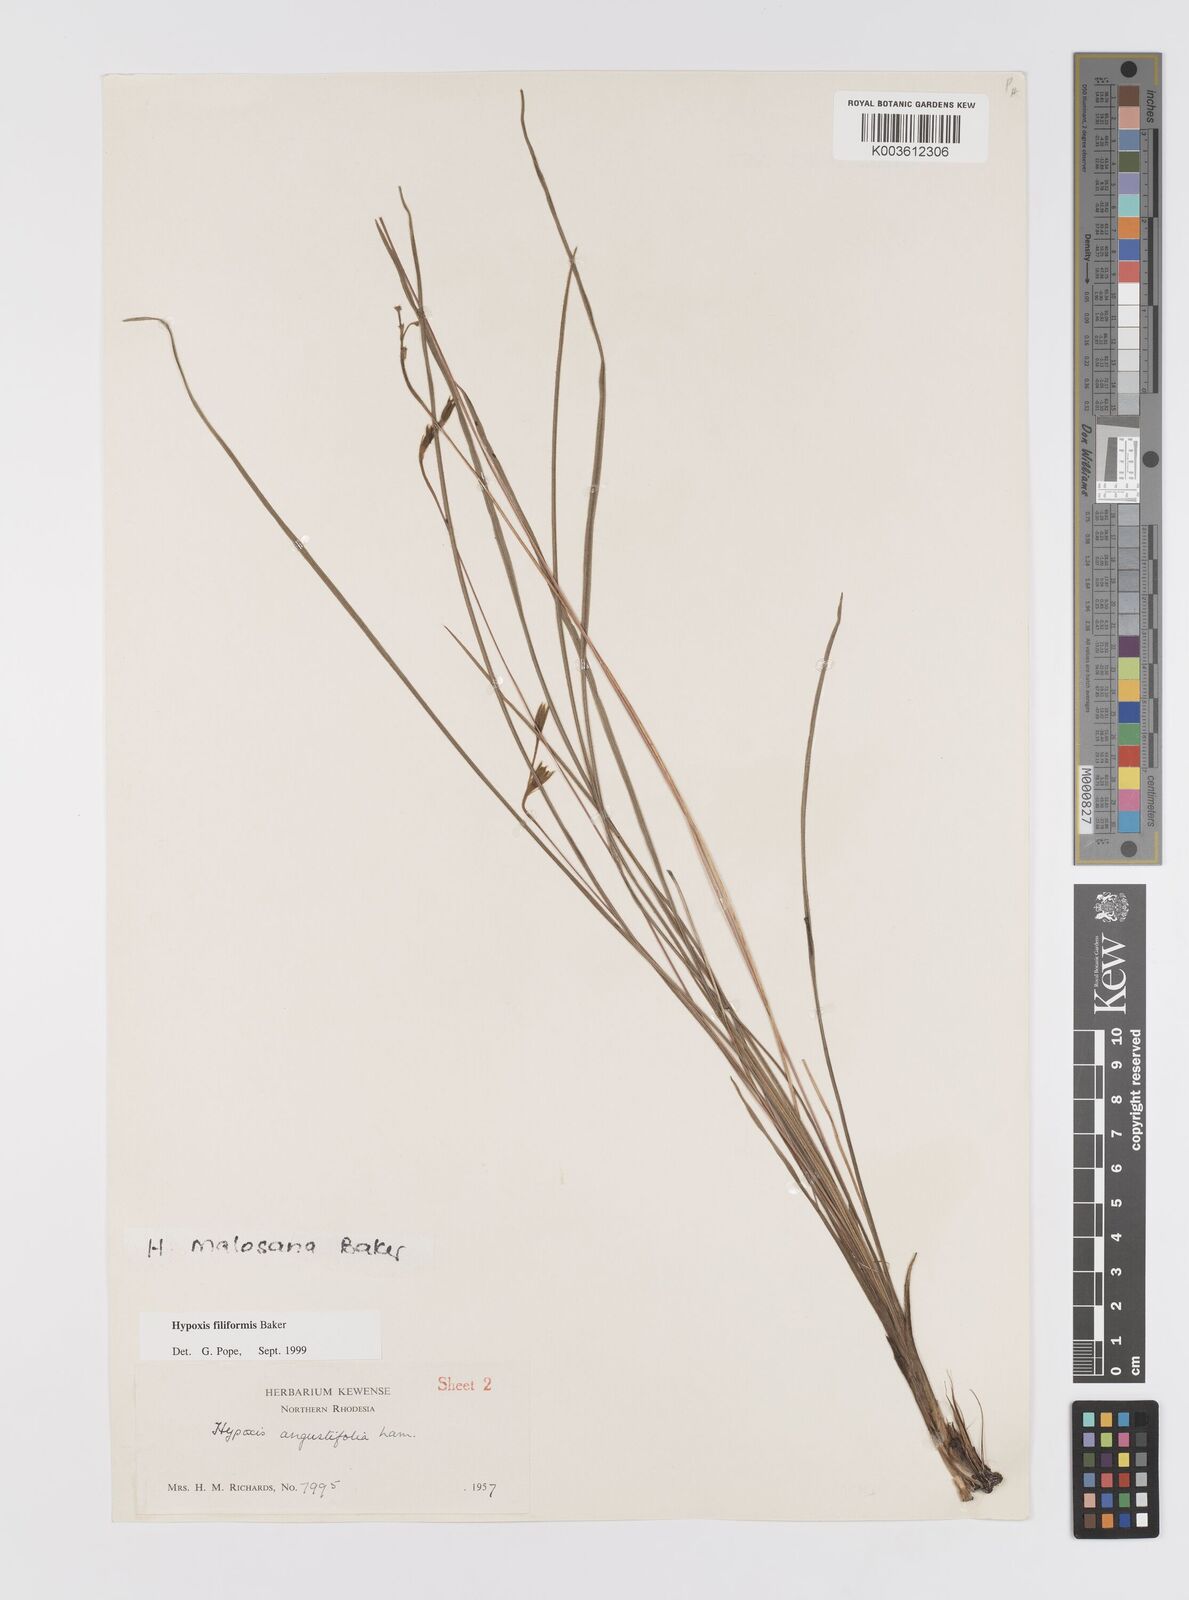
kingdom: Plantae
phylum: Tracheophyta
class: Liliopsida
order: Asparagales
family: Hypoxidaceae
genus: Hypoxis
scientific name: Hypoxis filiformis
